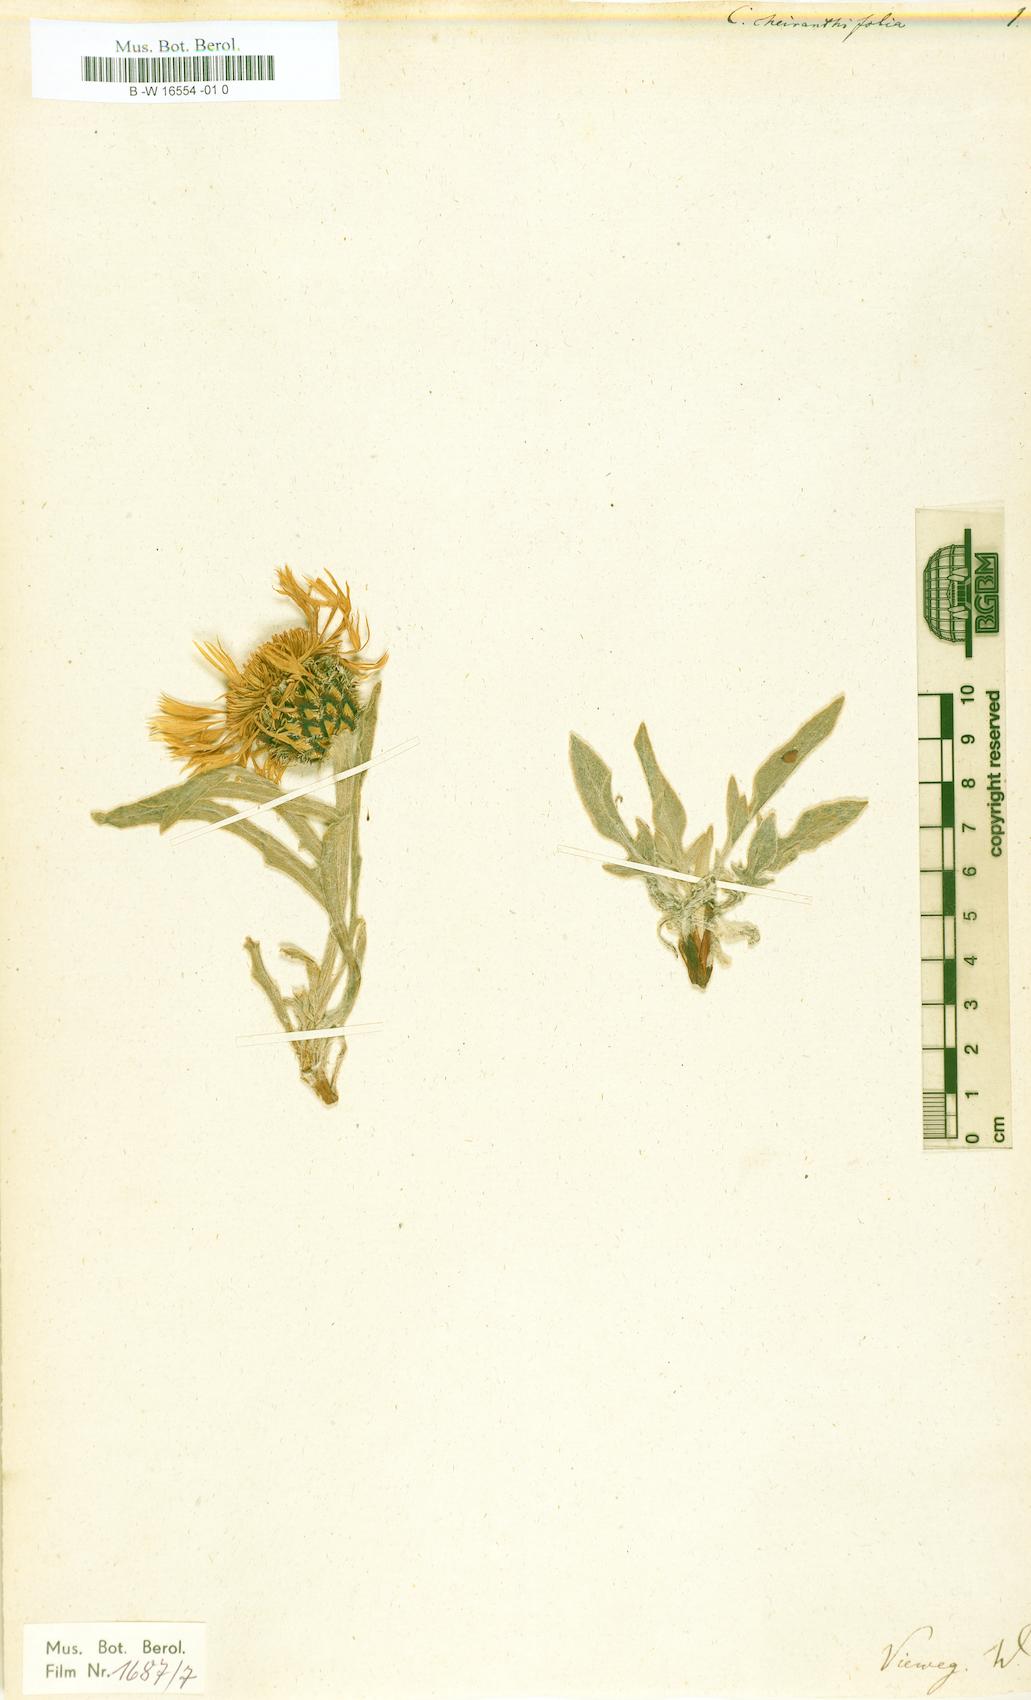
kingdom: Plantae
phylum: Tracheophyta
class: Magnoliopsida
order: Asterales
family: Asteraceae
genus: Centaurea
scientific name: Centaurea cheiranthifolia
